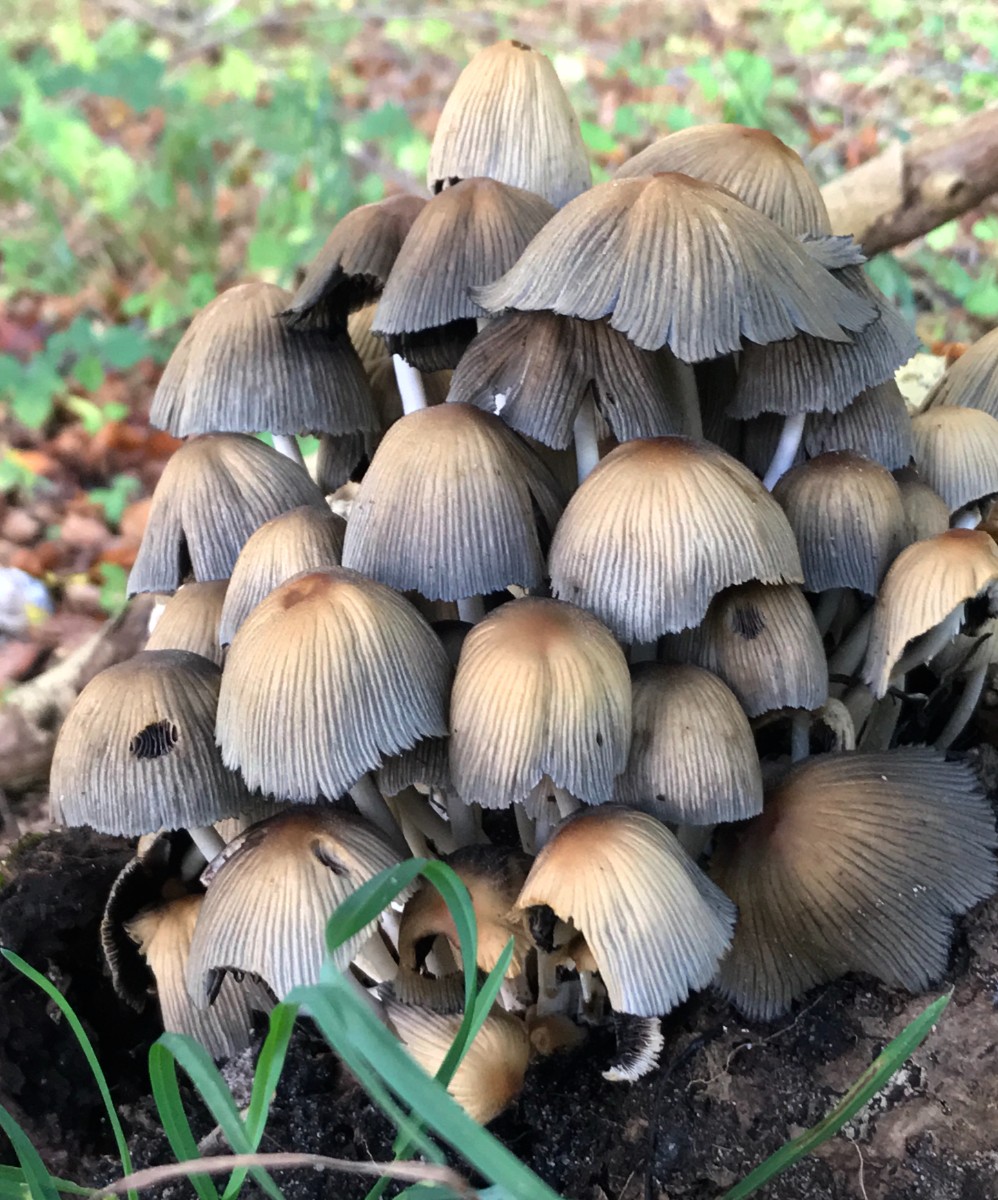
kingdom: Fungi
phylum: Basidiomycota
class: Agaricomycetes
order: Agaricales
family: Psathyrellaceae
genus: Coprinellus
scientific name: Coprinellus micaceus
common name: glimmer-blækhat
